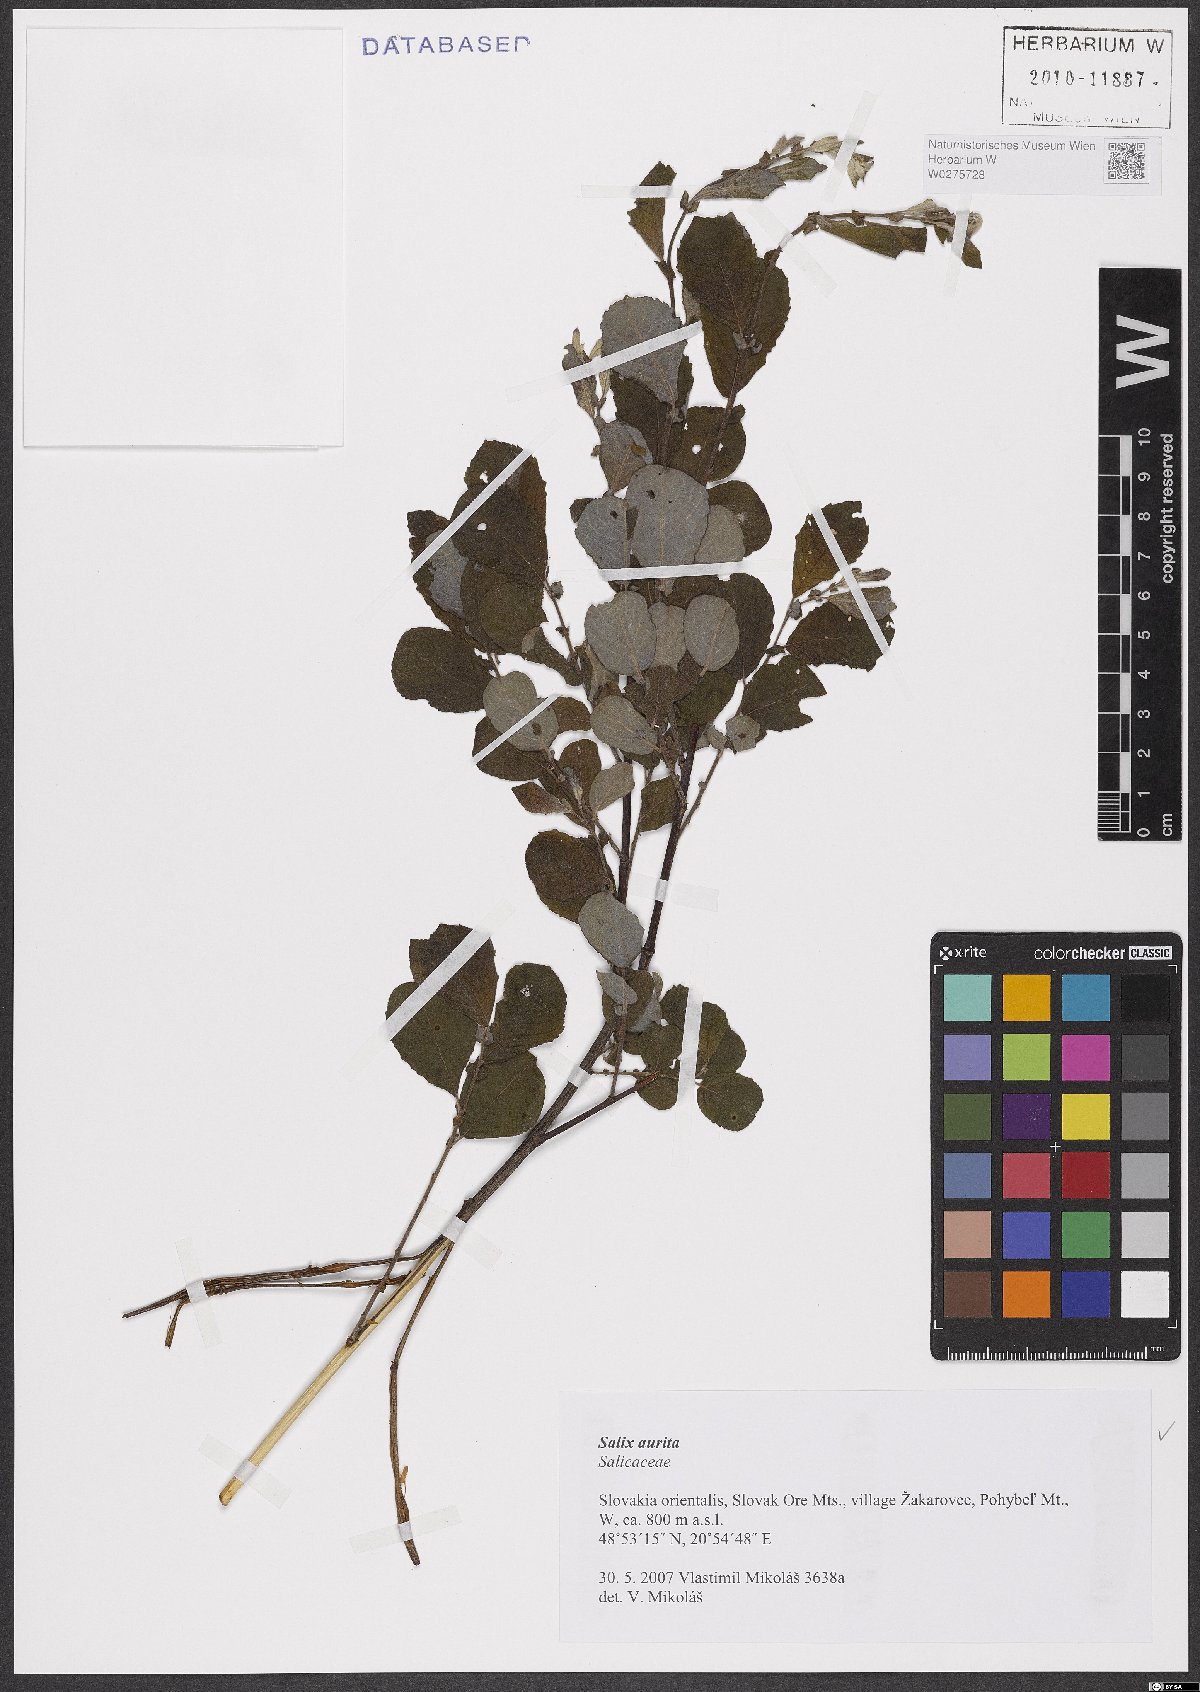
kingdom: Plantae
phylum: Tracheophyta
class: Magnoliopsida
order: Malpighiales
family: Salicaceae
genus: Salix
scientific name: Salix aurita
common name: Eared willow
